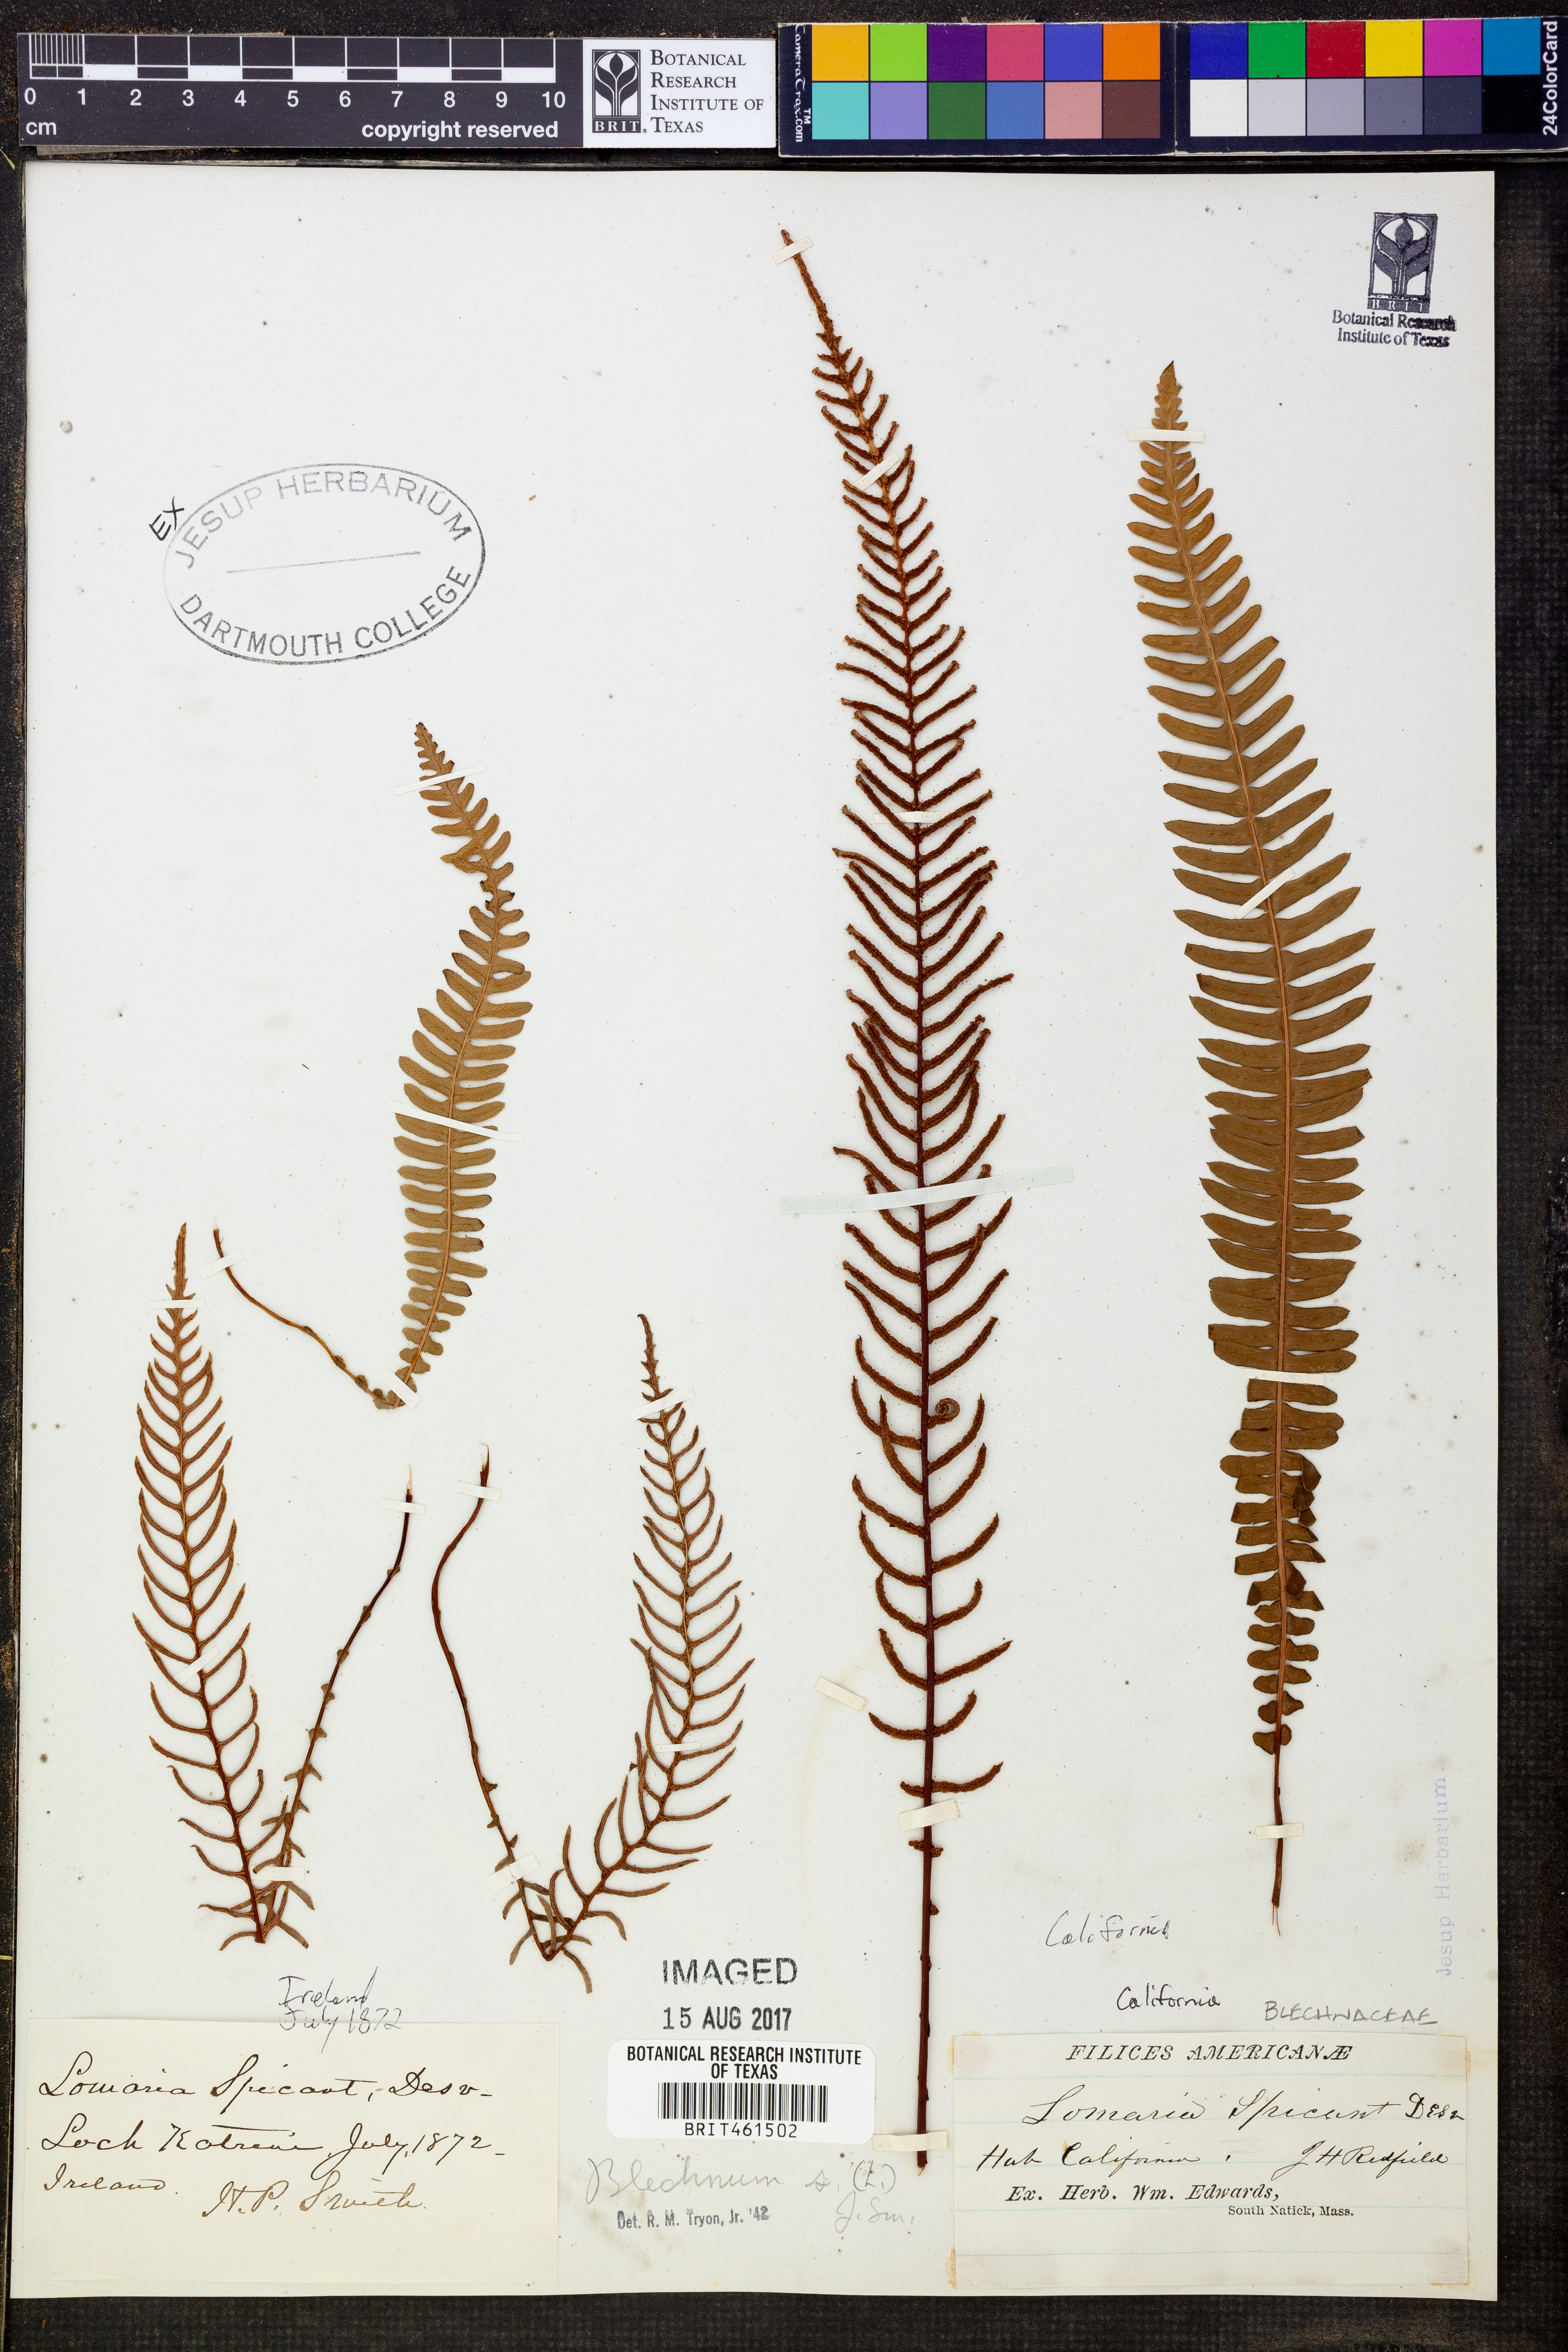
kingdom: Plantae
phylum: Tracheophyta
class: Polypodiopsida
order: Polypodiales
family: Blechnaceae
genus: Struthiopteris
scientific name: Struthiopteris spicant
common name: Deer fern
